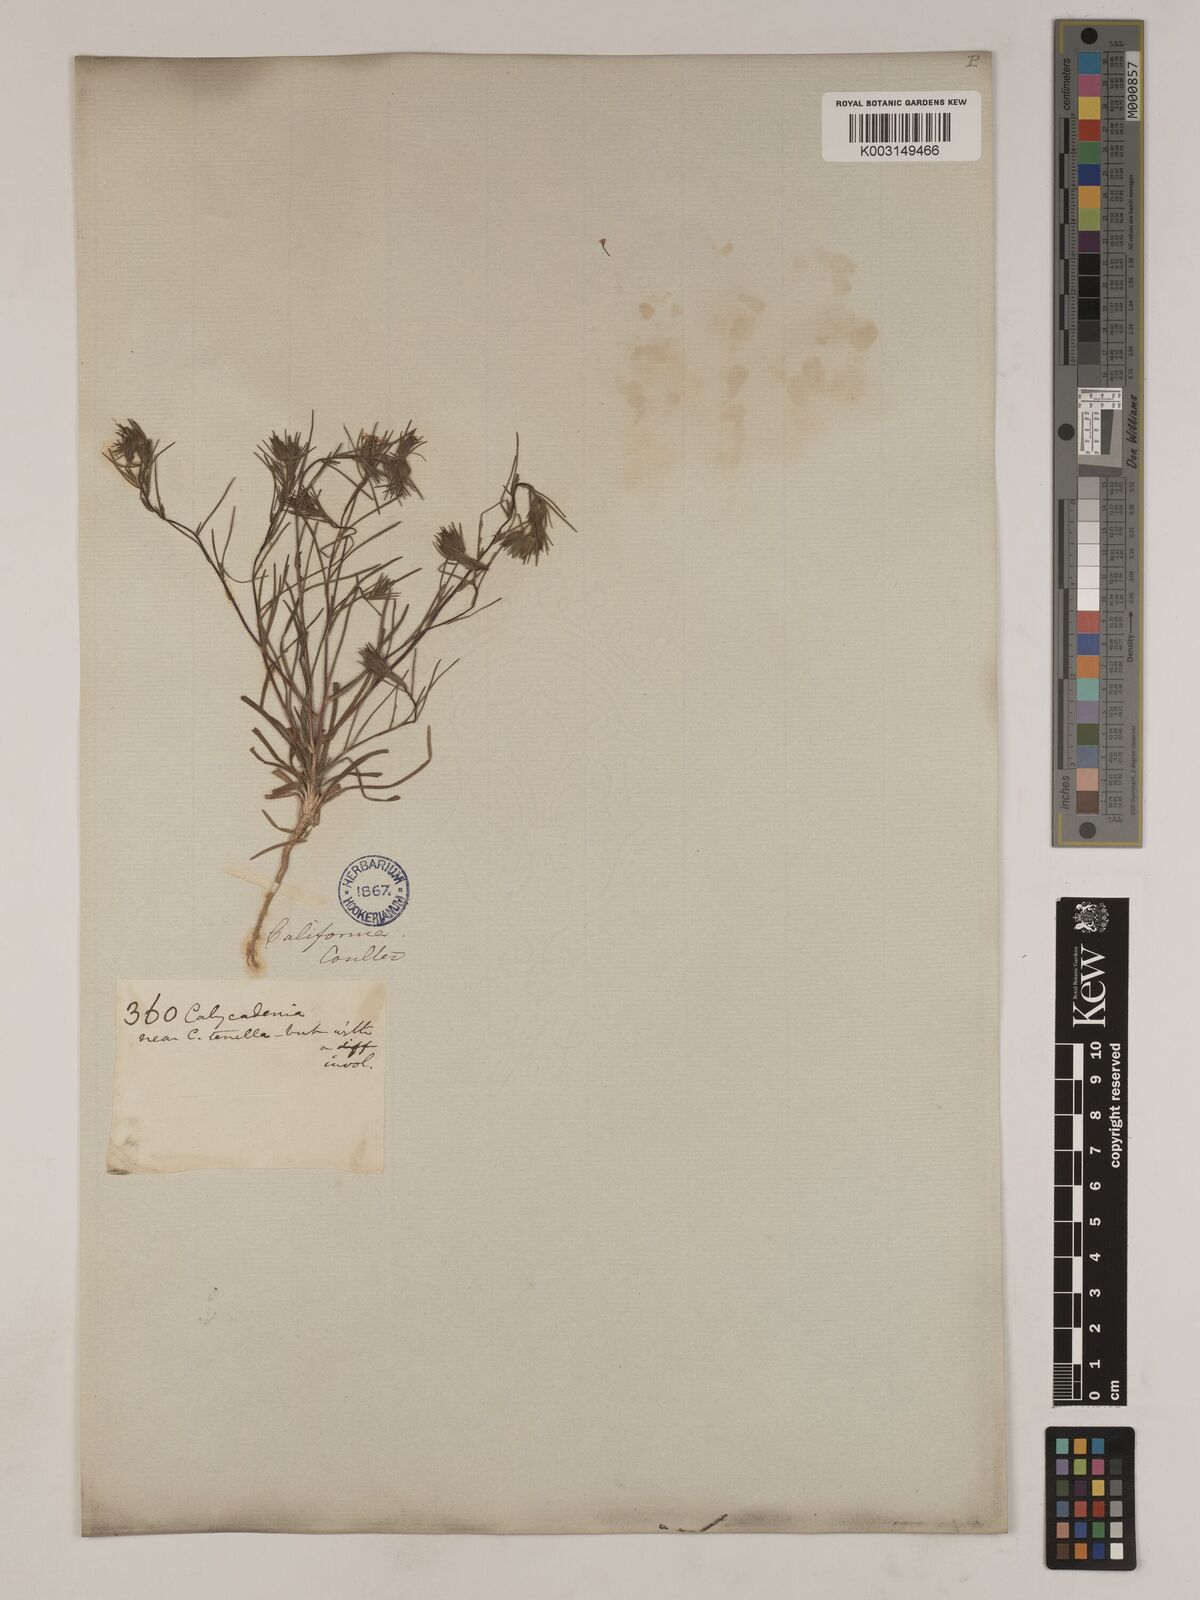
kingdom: Plantae
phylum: Tracheophyta
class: Magnoliopsida
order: Asterales
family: Asteraceae
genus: Osmadenia
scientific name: Osmadenia tenella
